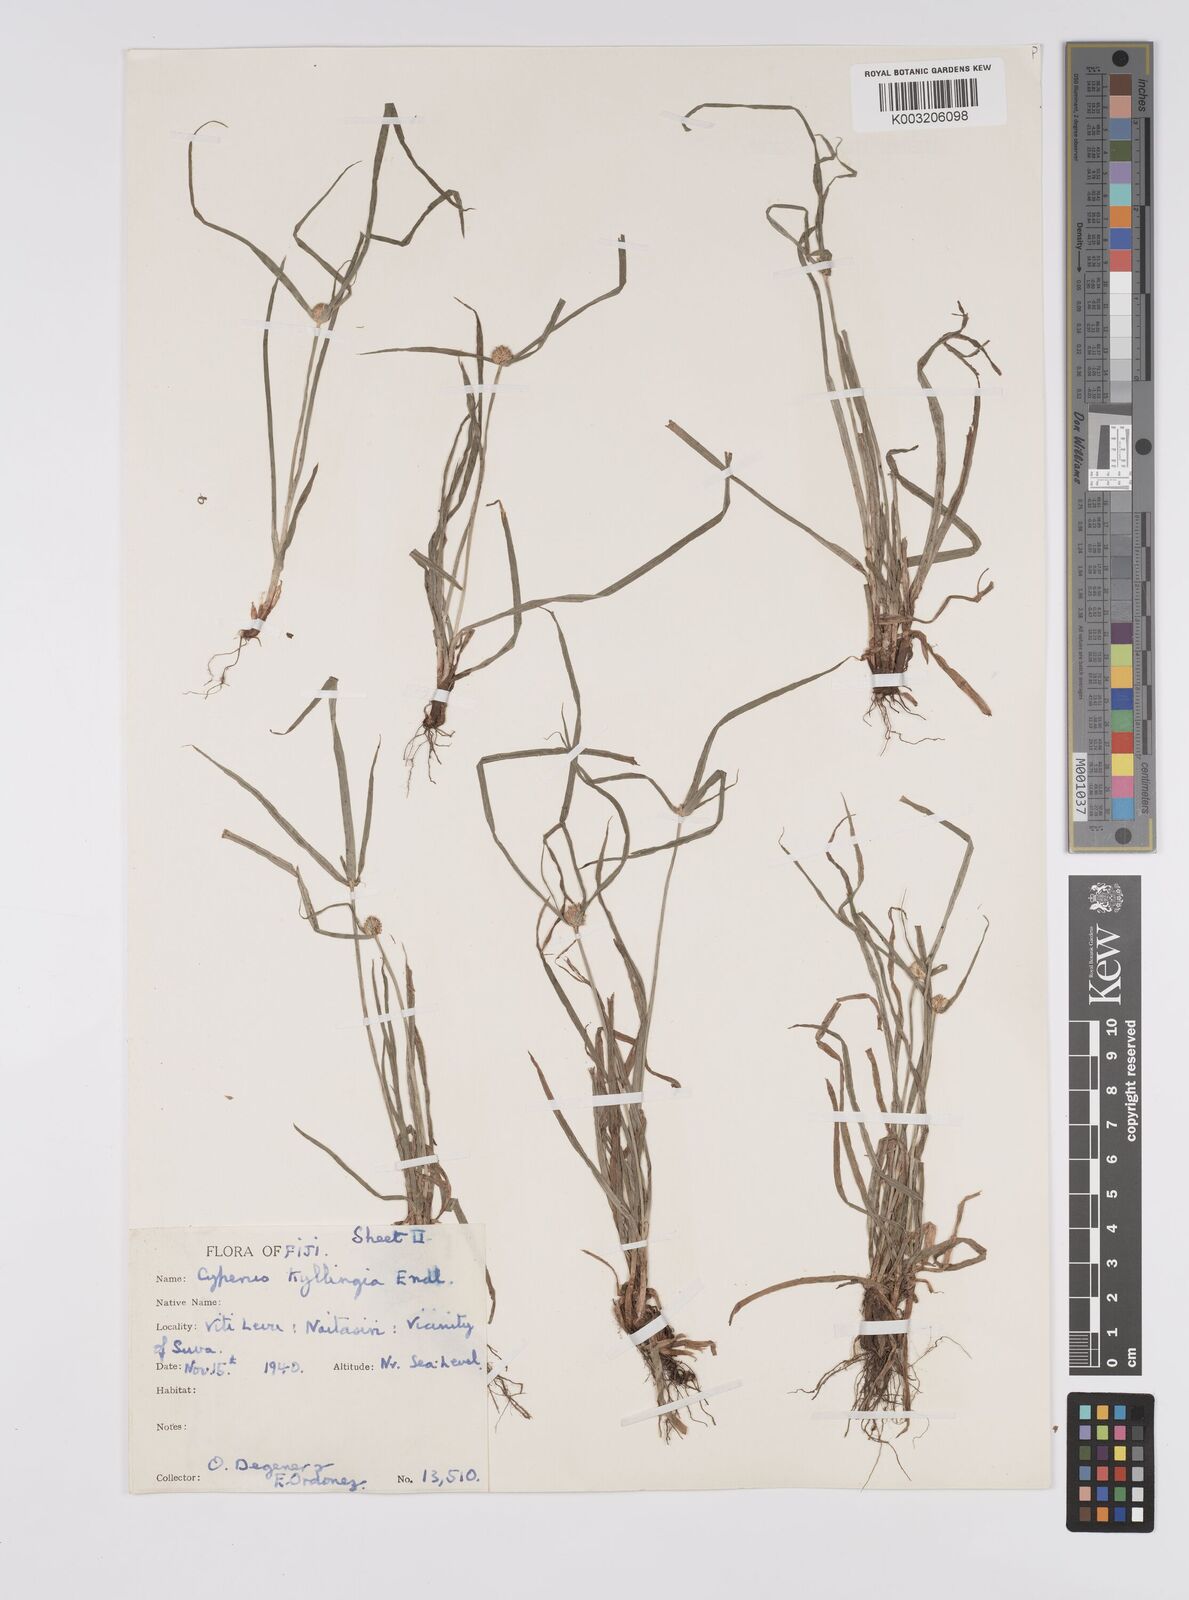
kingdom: Plantae
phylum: Tracheophyta
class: Liliopsida
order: Poales
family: Cyperaceae
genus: Cyperus
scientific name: Cyperus nemoralis
